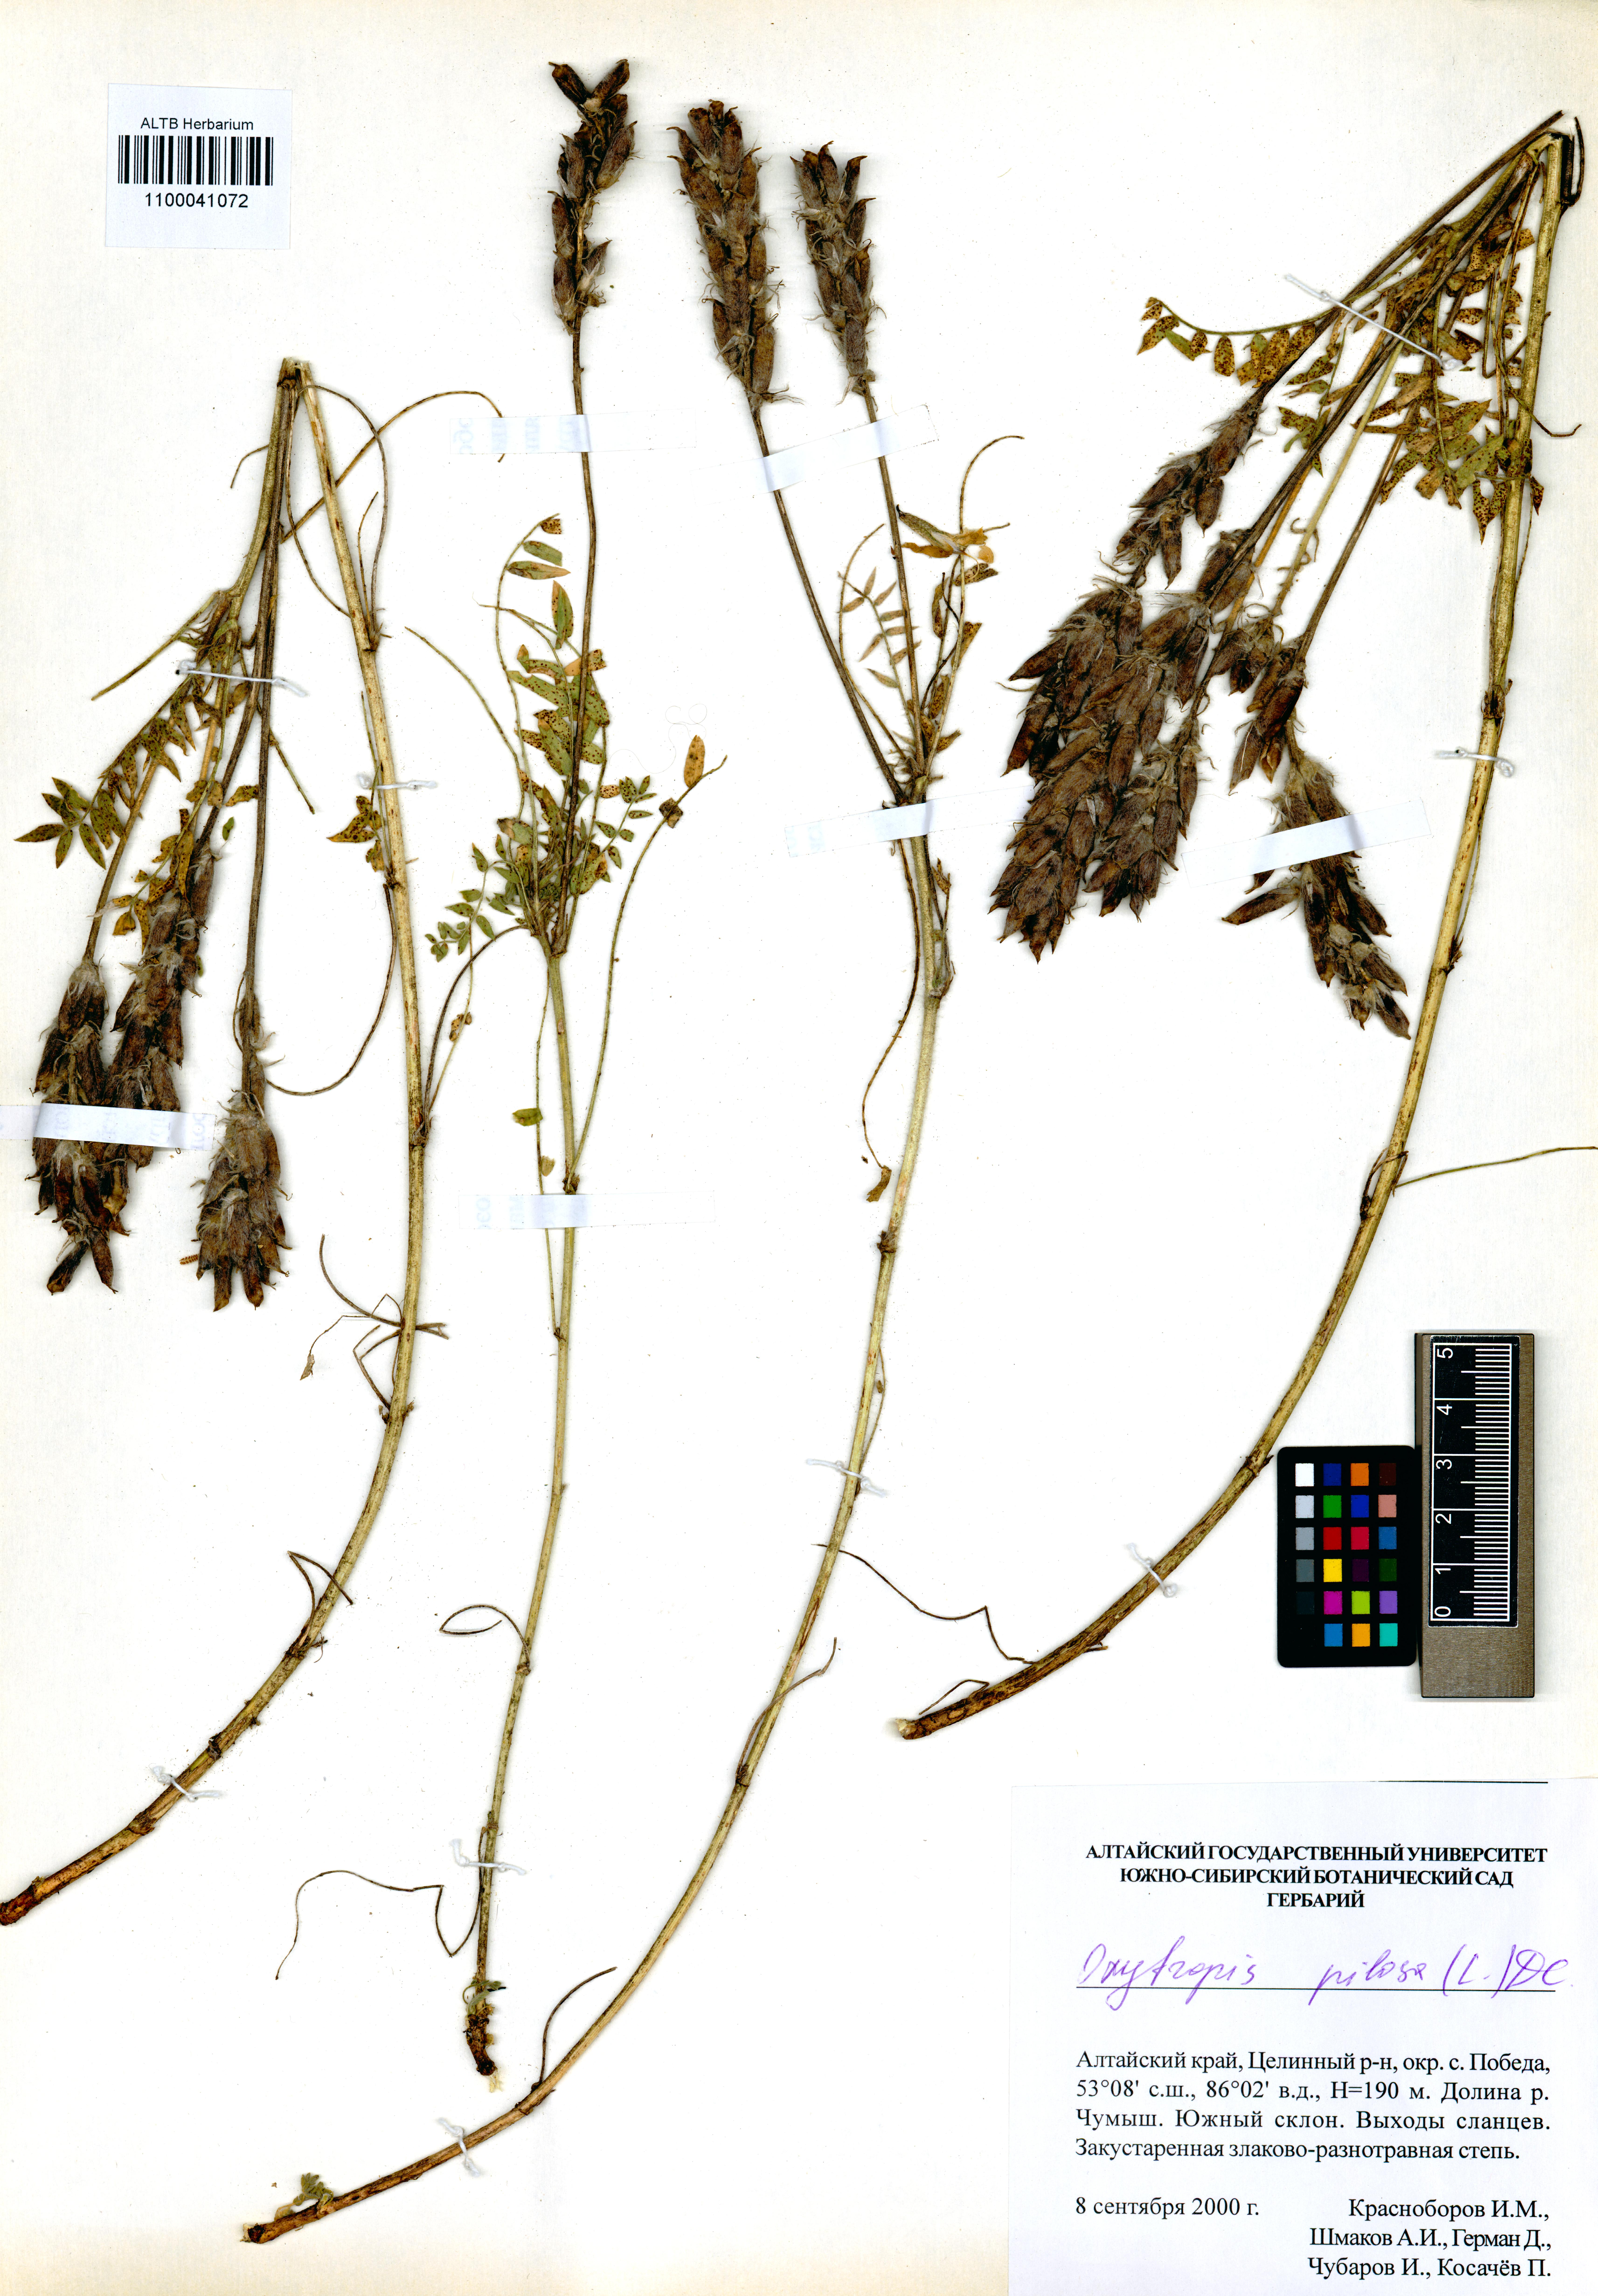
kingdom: Plantae
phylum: Tracheophyta
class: Magnoliopsida
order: Fabales
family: Fabaceae
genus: Oxytropis
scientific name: Oxytropis pilosa
